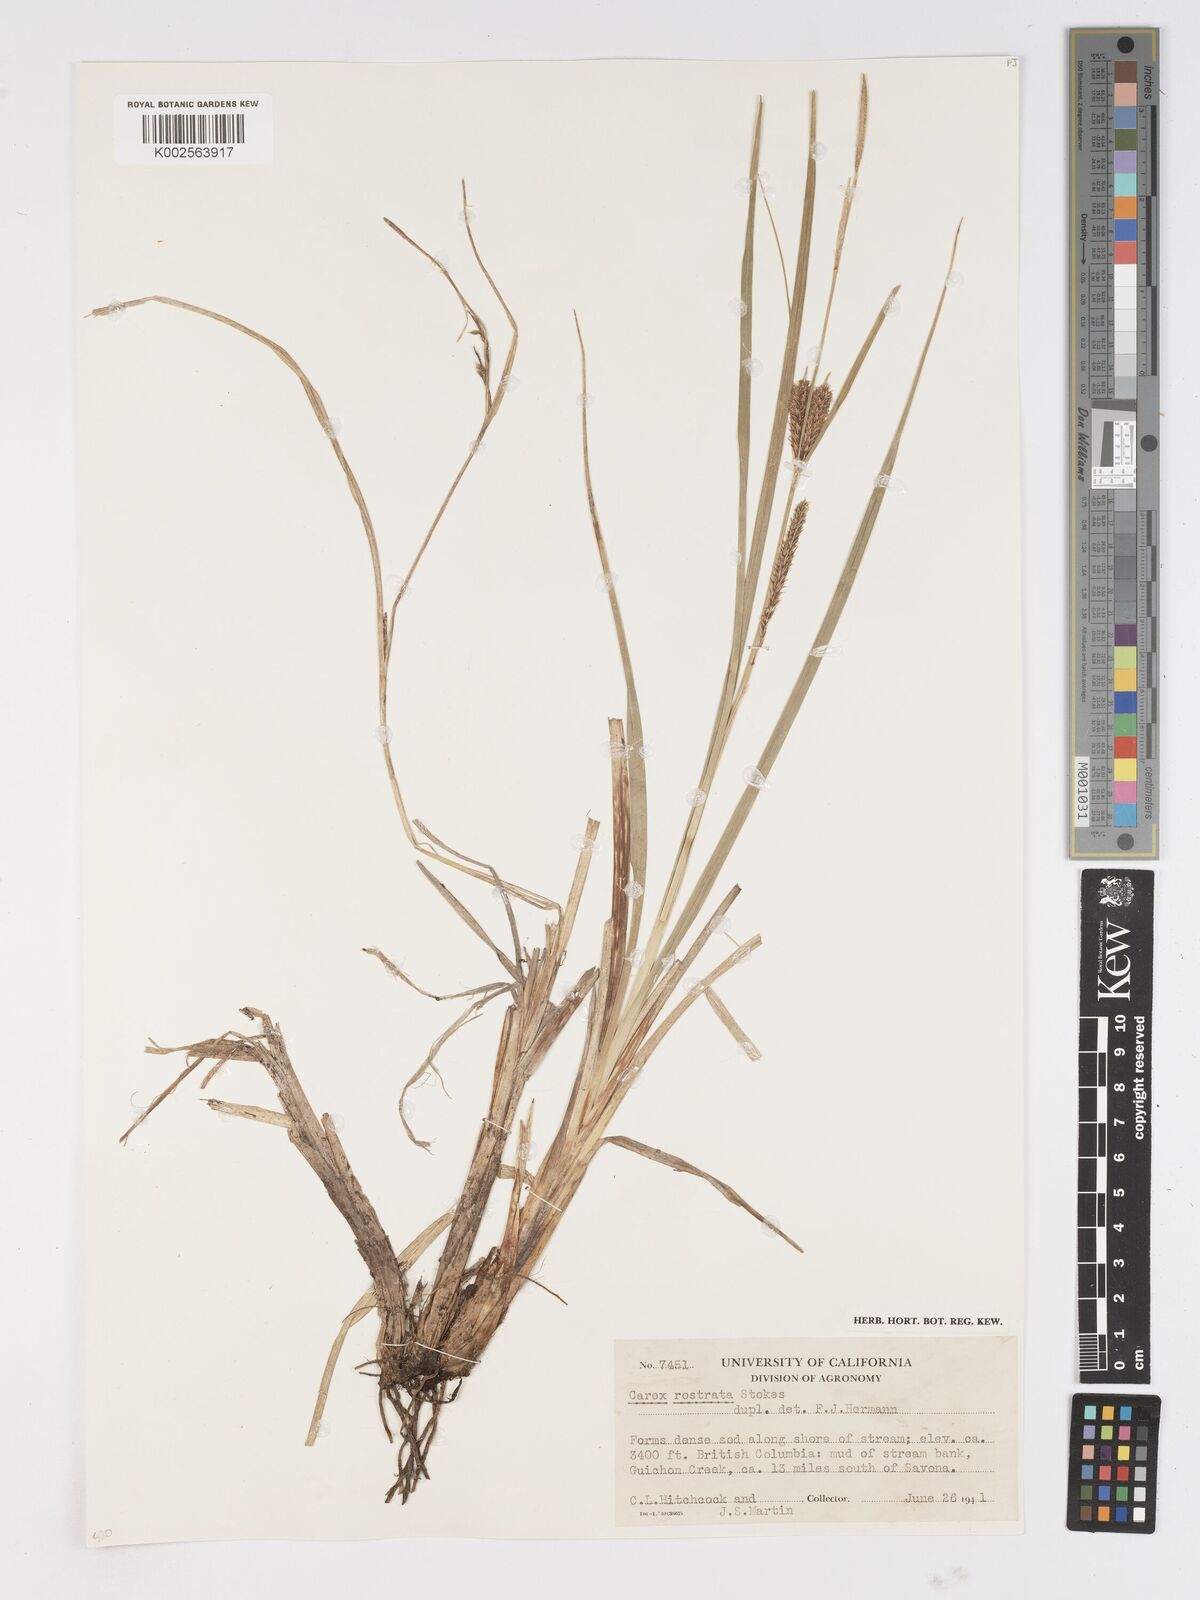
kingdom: Plantae
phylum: Tracheophyta
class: Liliopsida
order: Poales
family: Cyperaceae
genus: Carex
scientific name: Carex rostrata
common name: Bottle sedge
